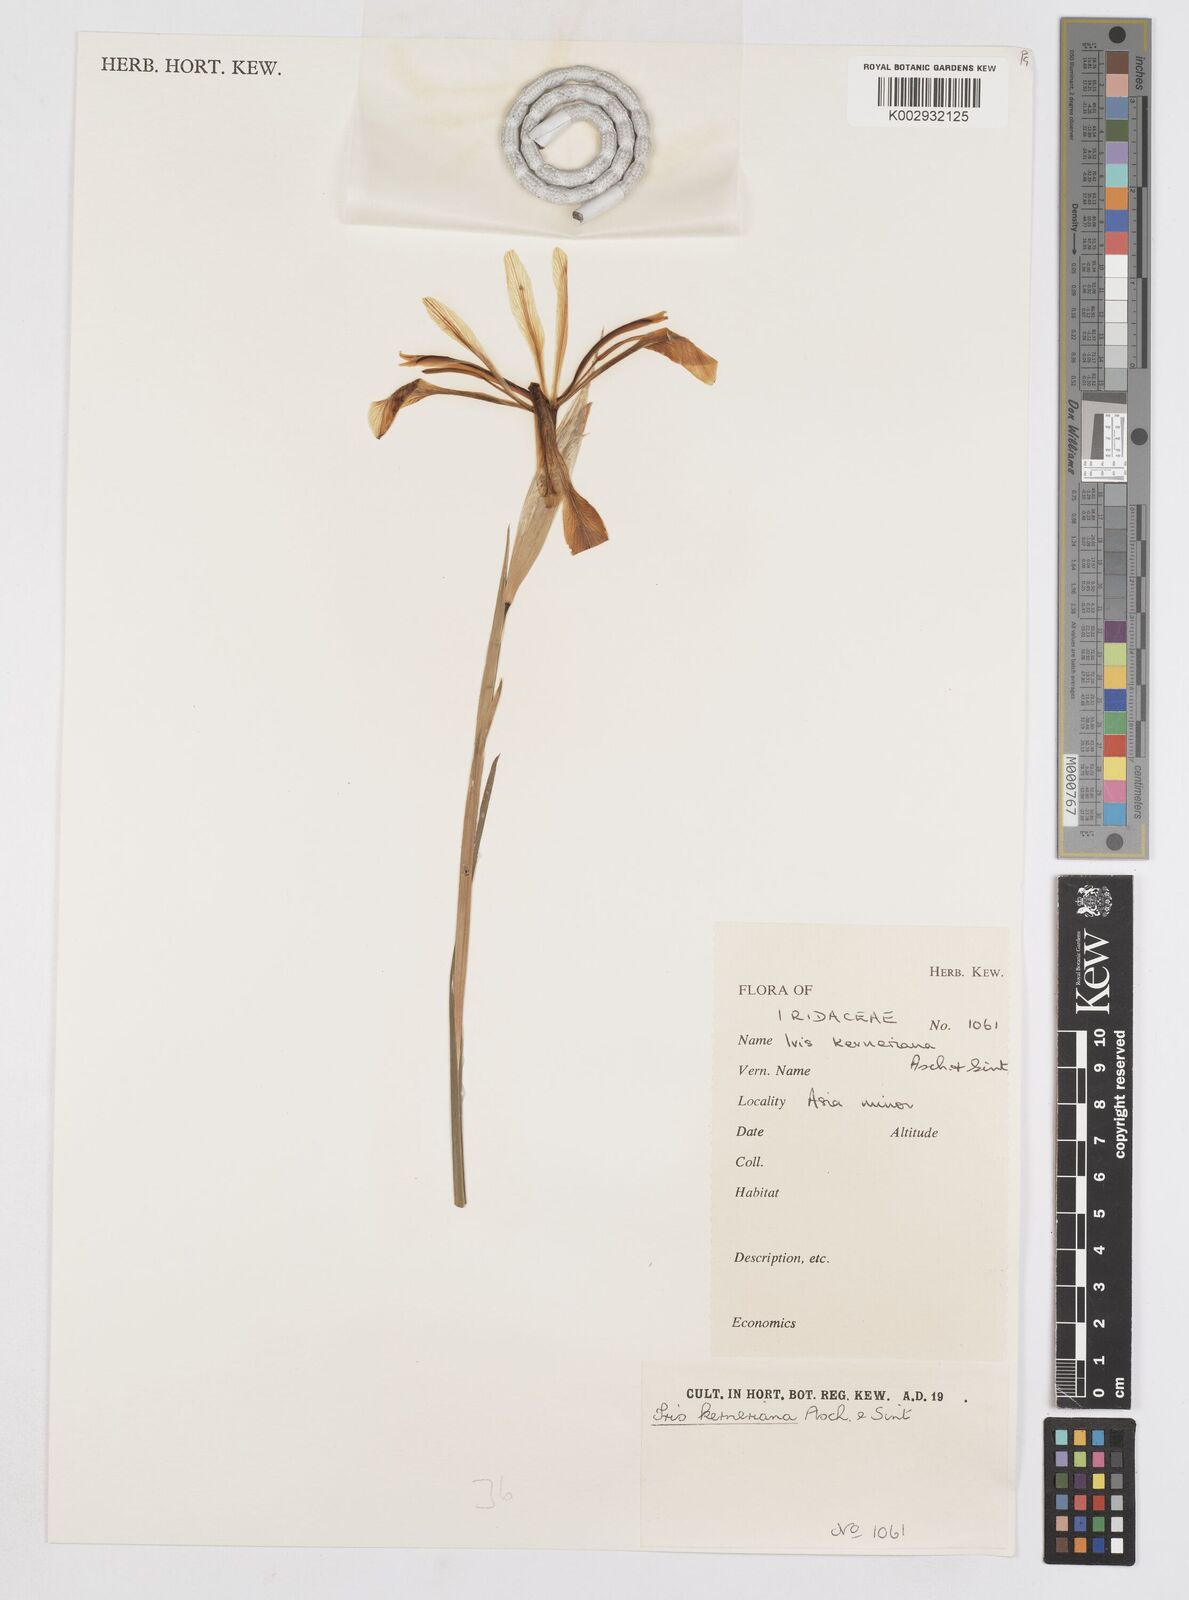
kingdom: Plantae
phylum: Tracheophyta
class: Liliopsida
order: Asparagales
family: Iridaceae
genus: Iris
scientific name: Iris haussknechtii
